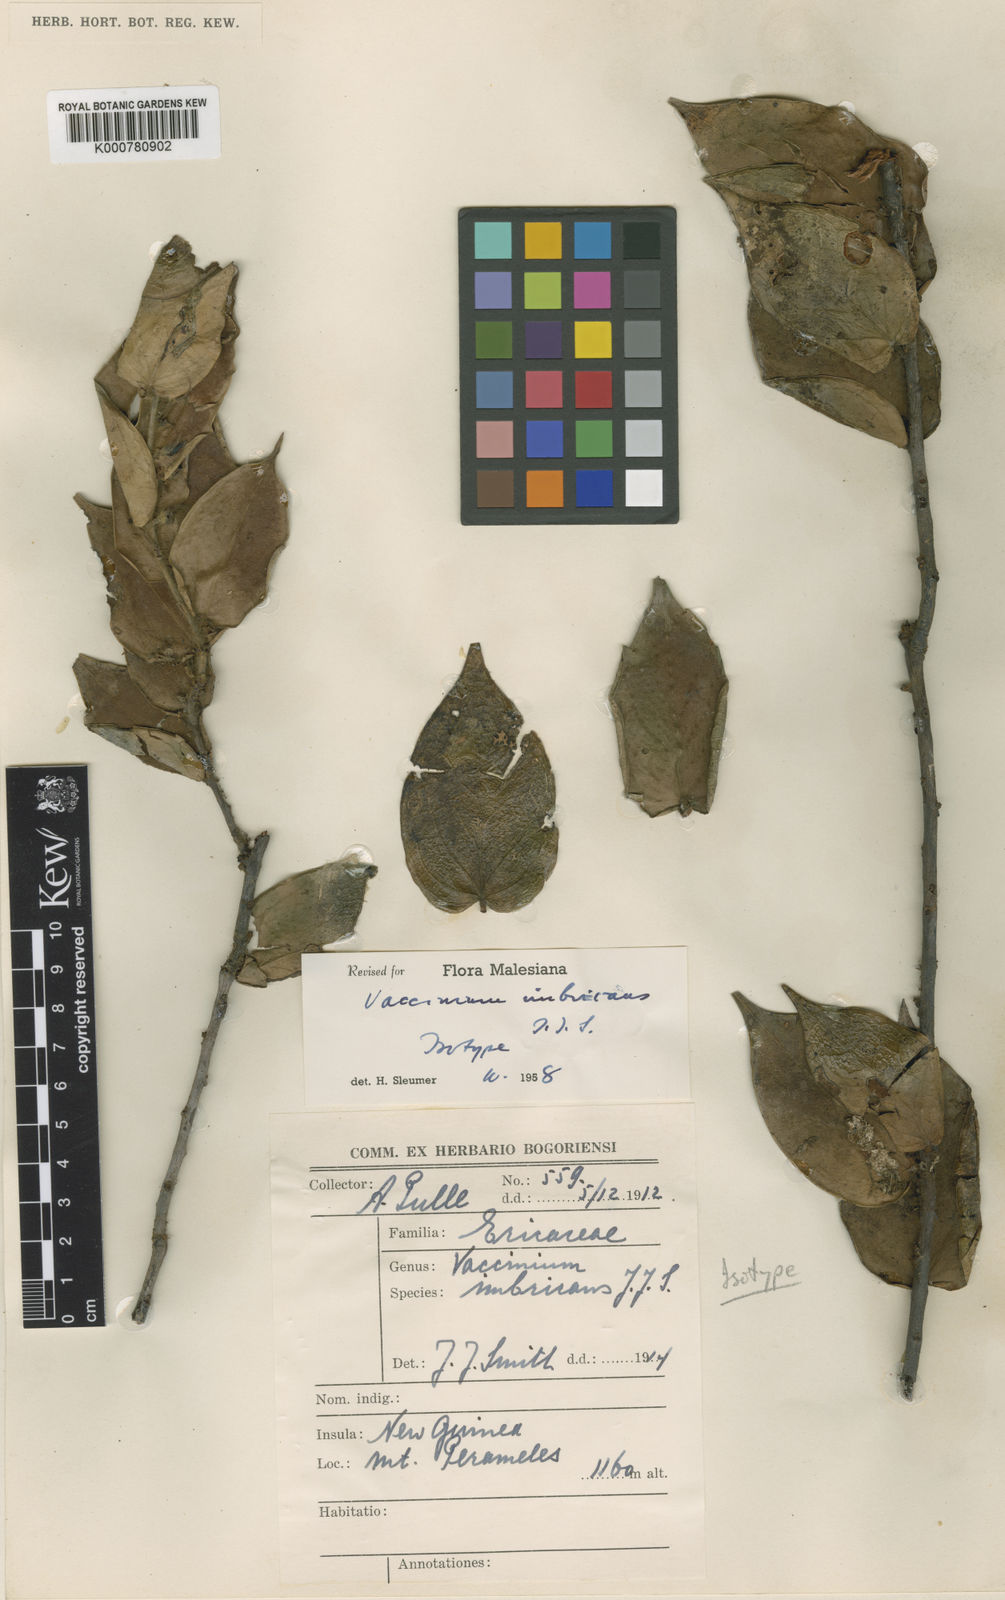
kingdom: Plantae
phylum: Tracheophyta
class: Magnoliopsida
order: Ericales
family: Ericaceae
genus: Vaccinium
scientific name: Vaccinium imbricans
